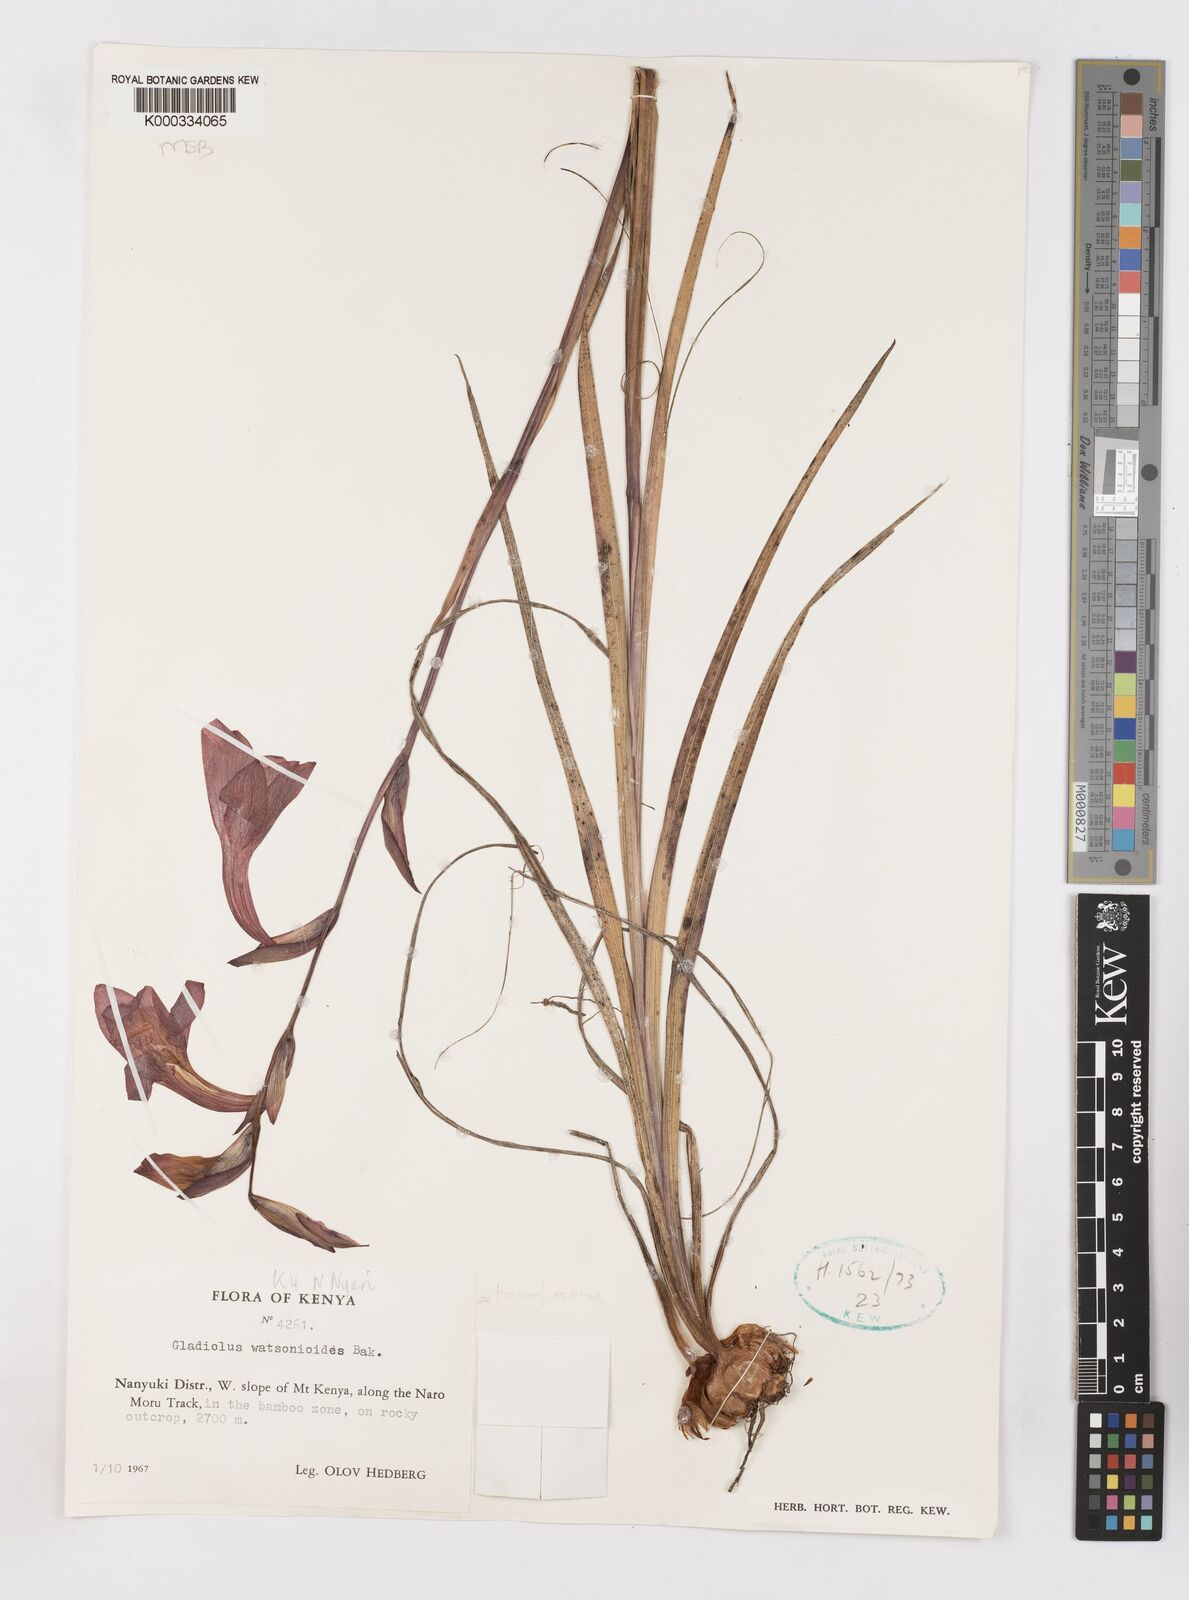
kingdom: Plantae
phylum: Tracheophyta
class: Liliopsida
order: Asparagales
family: Iridaceae
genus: Gladiolus
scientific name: Gladiolus watsonioides
